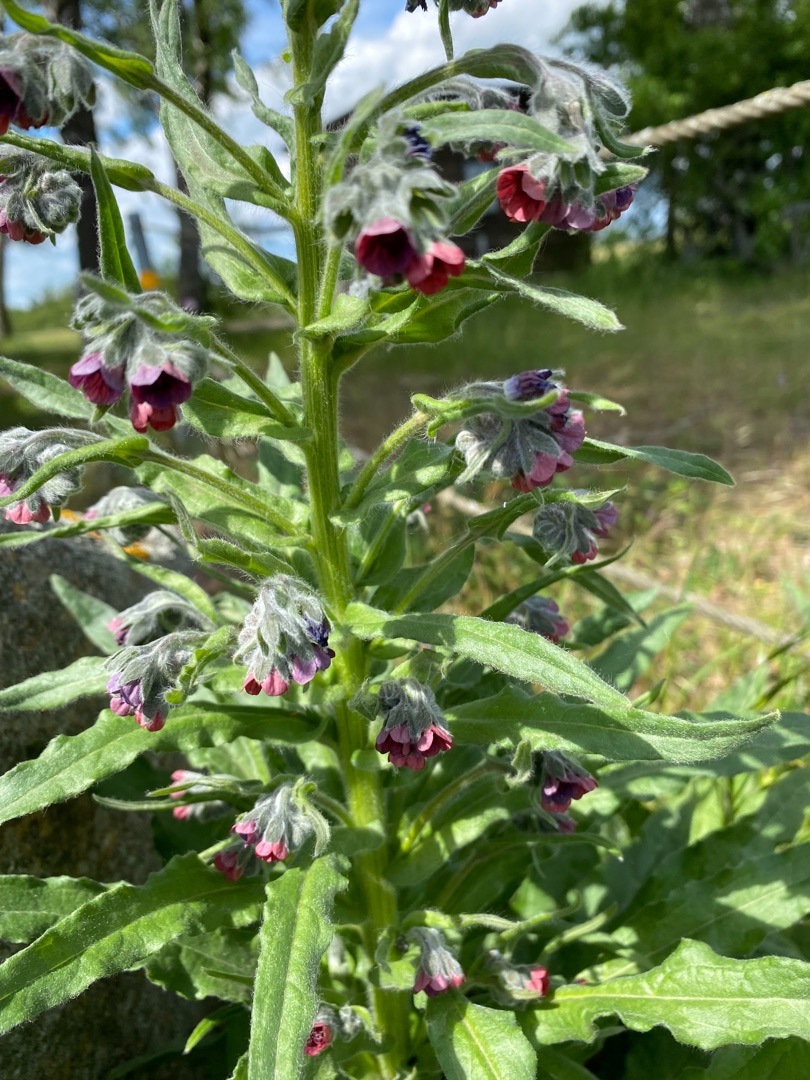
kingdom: Plantae
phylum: Tracheophyta
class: Magnoliopsida
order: Boraginales
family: Boraginaceae
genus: Cynoglossum
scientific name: Cynoglossum officinale
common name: Hundetunge
